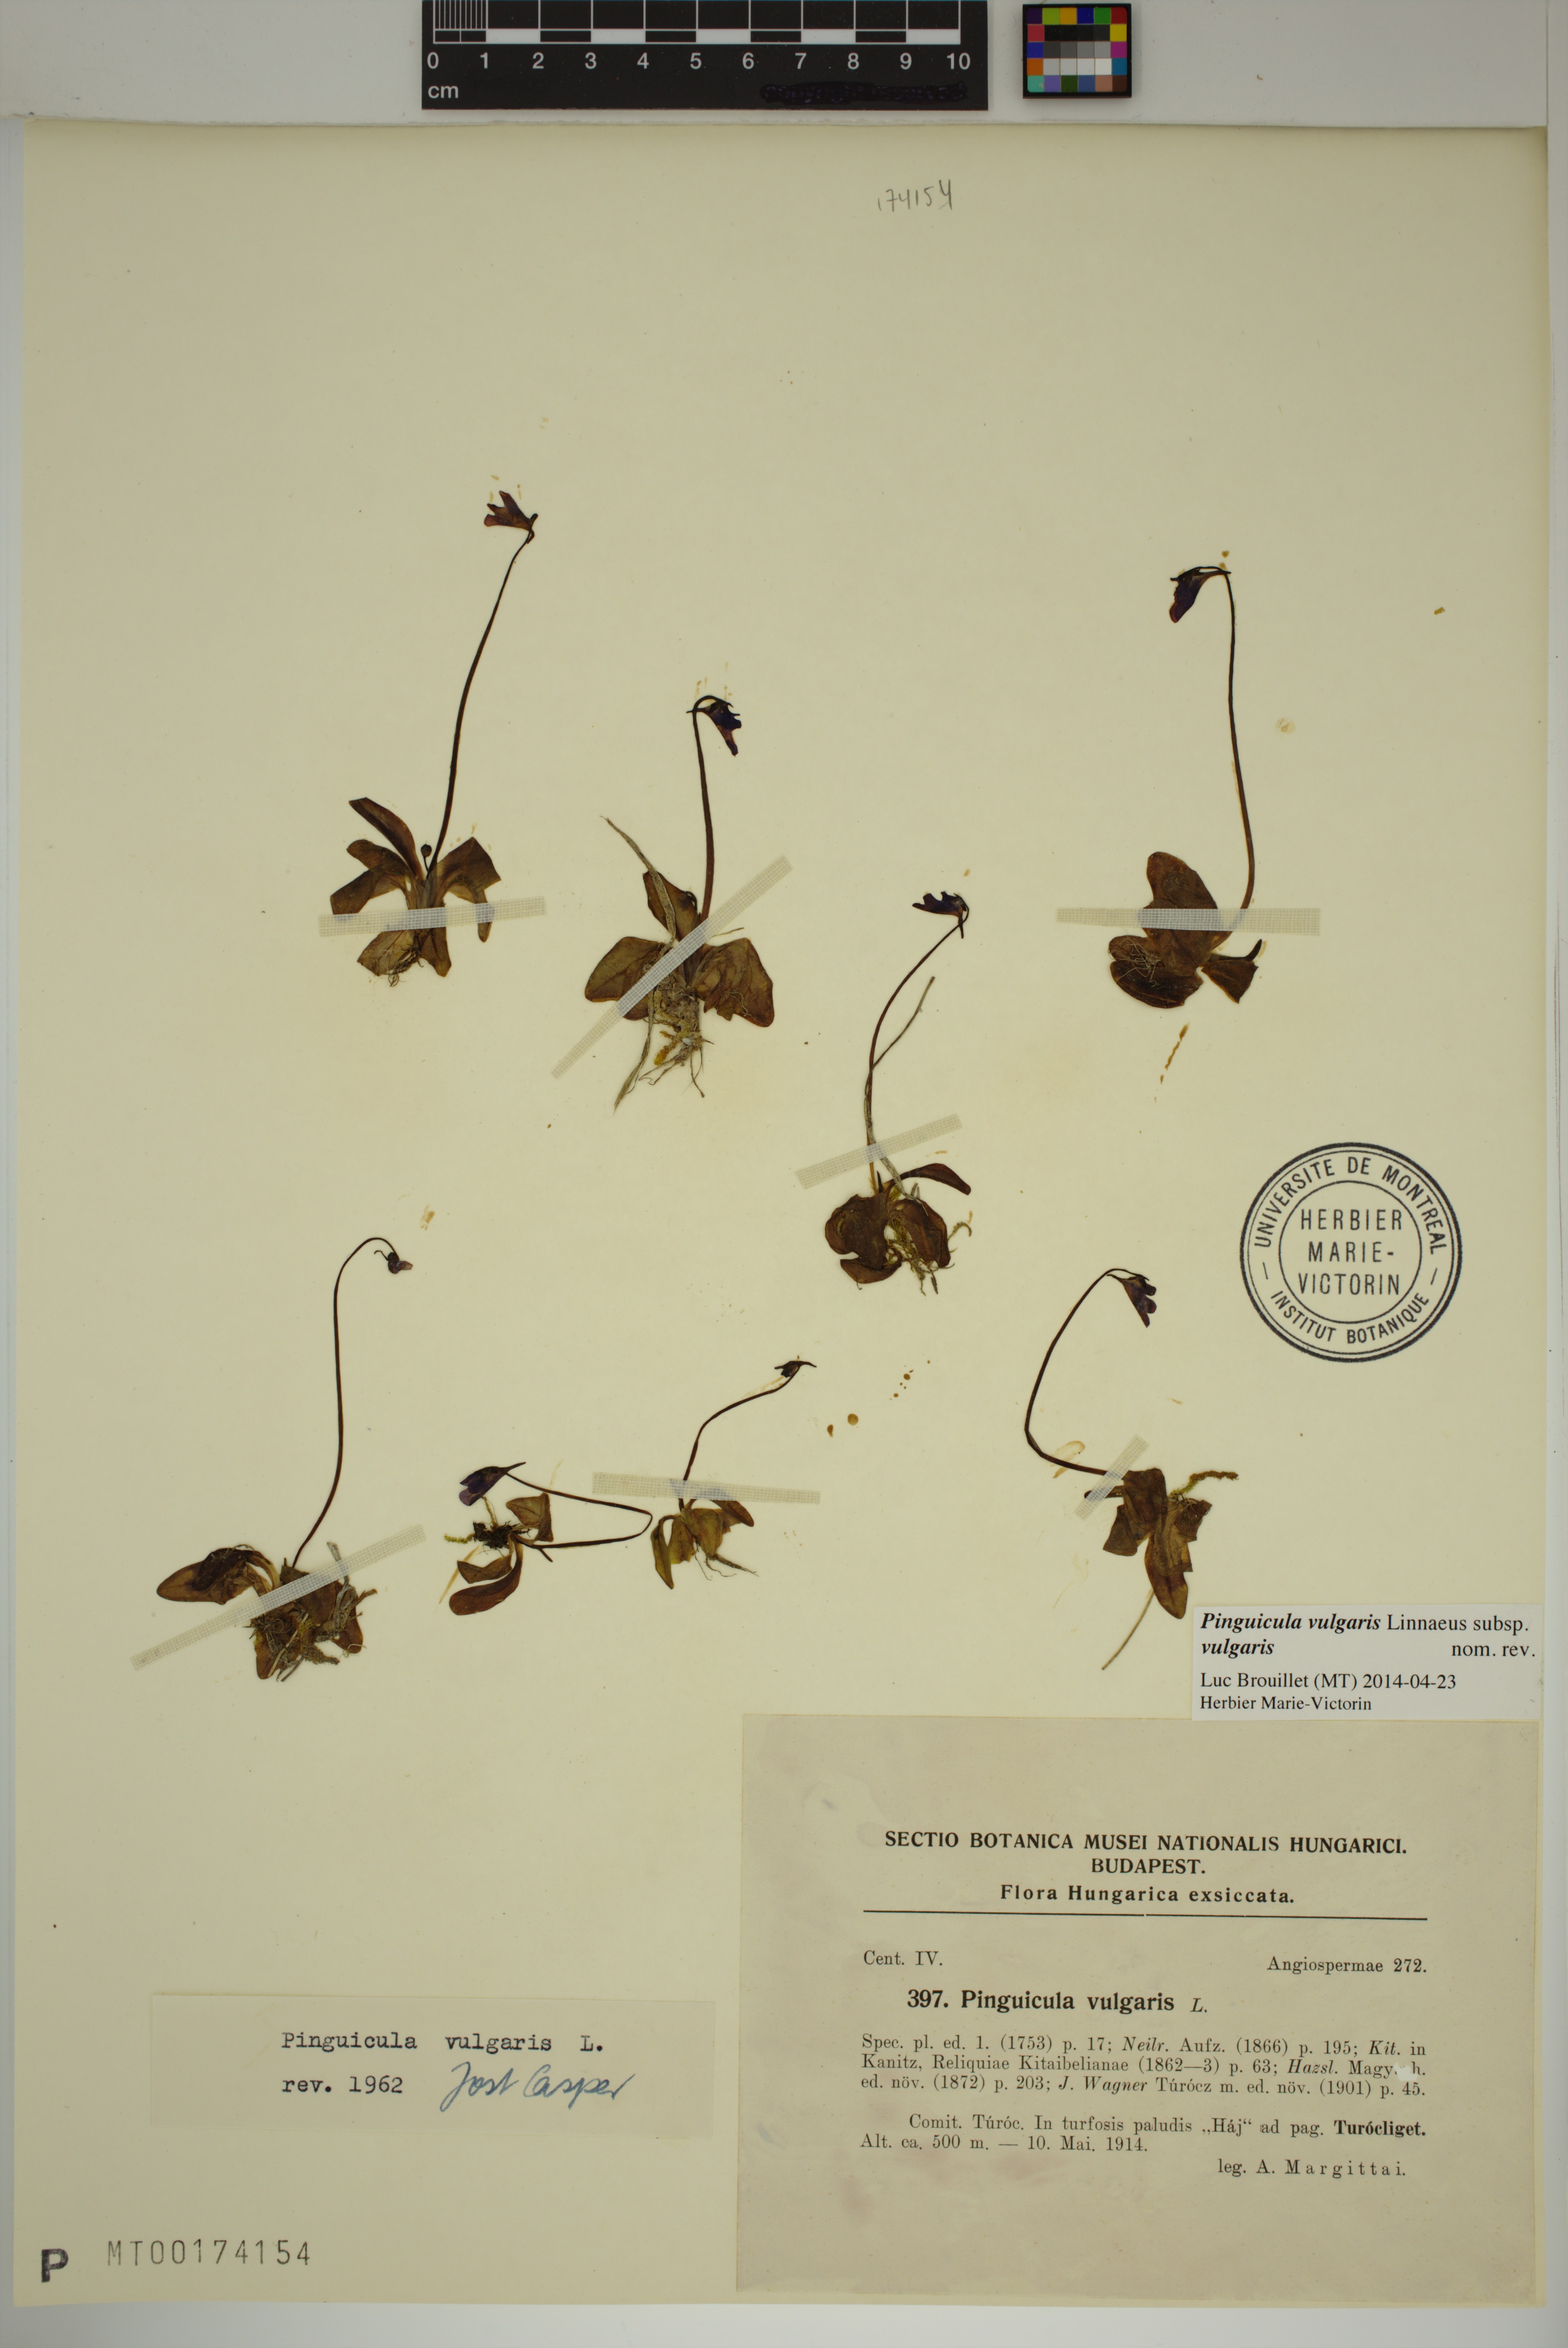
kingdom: Plantae
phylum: Tracheophyta
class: Magnoliopsida
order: Lamiales
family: Lentibulariaceae
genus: Pinguicula
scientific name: Pinguicula vulgaris
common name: Common butterwort
